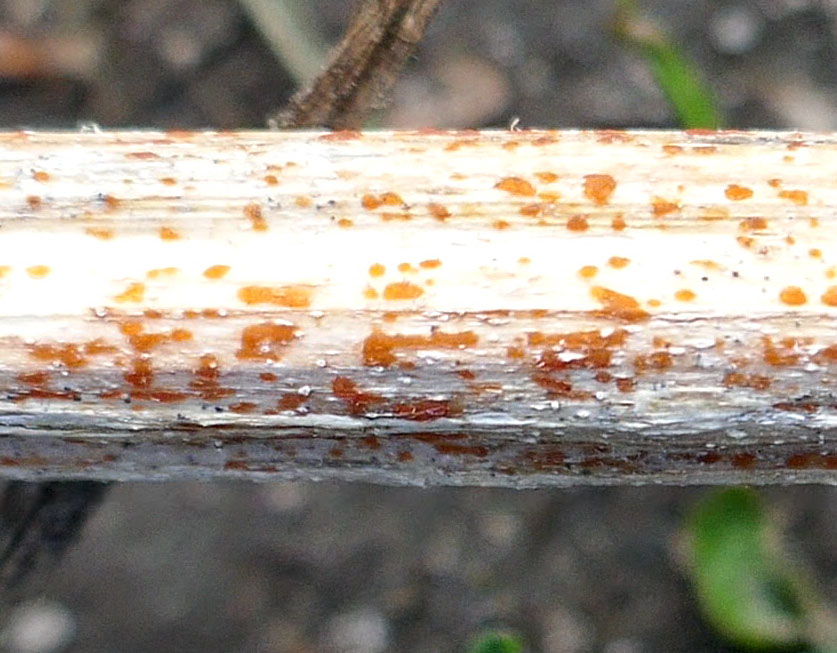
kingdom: Fungi
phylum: Ascomycota
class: Leotiomycetes
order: Helotiales
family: Calloriaceae
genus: Calloria
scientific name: Calloria urticae
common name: nælde-orangeskive
